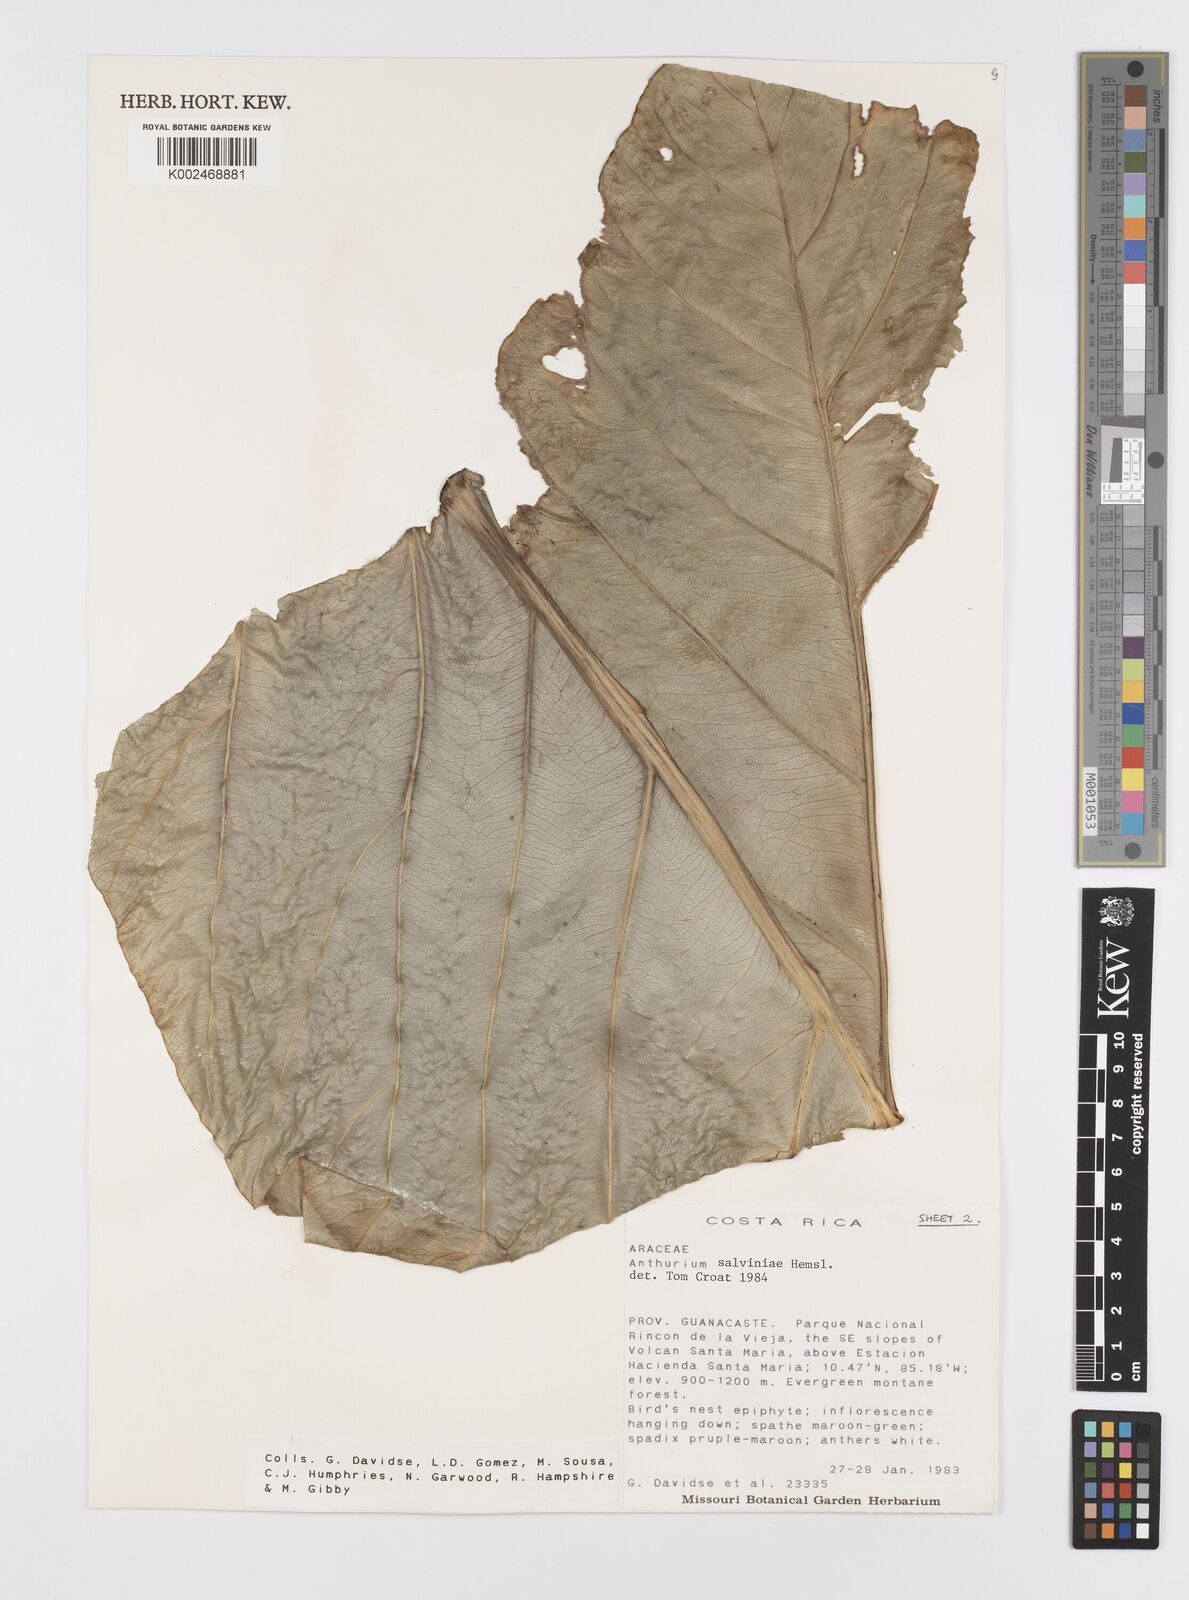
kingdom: Plantae
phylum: Tracheophyta
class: Liliopsida
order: Alismatales
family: Araceae
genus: Anthurium
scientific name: Anthurium salvinii
